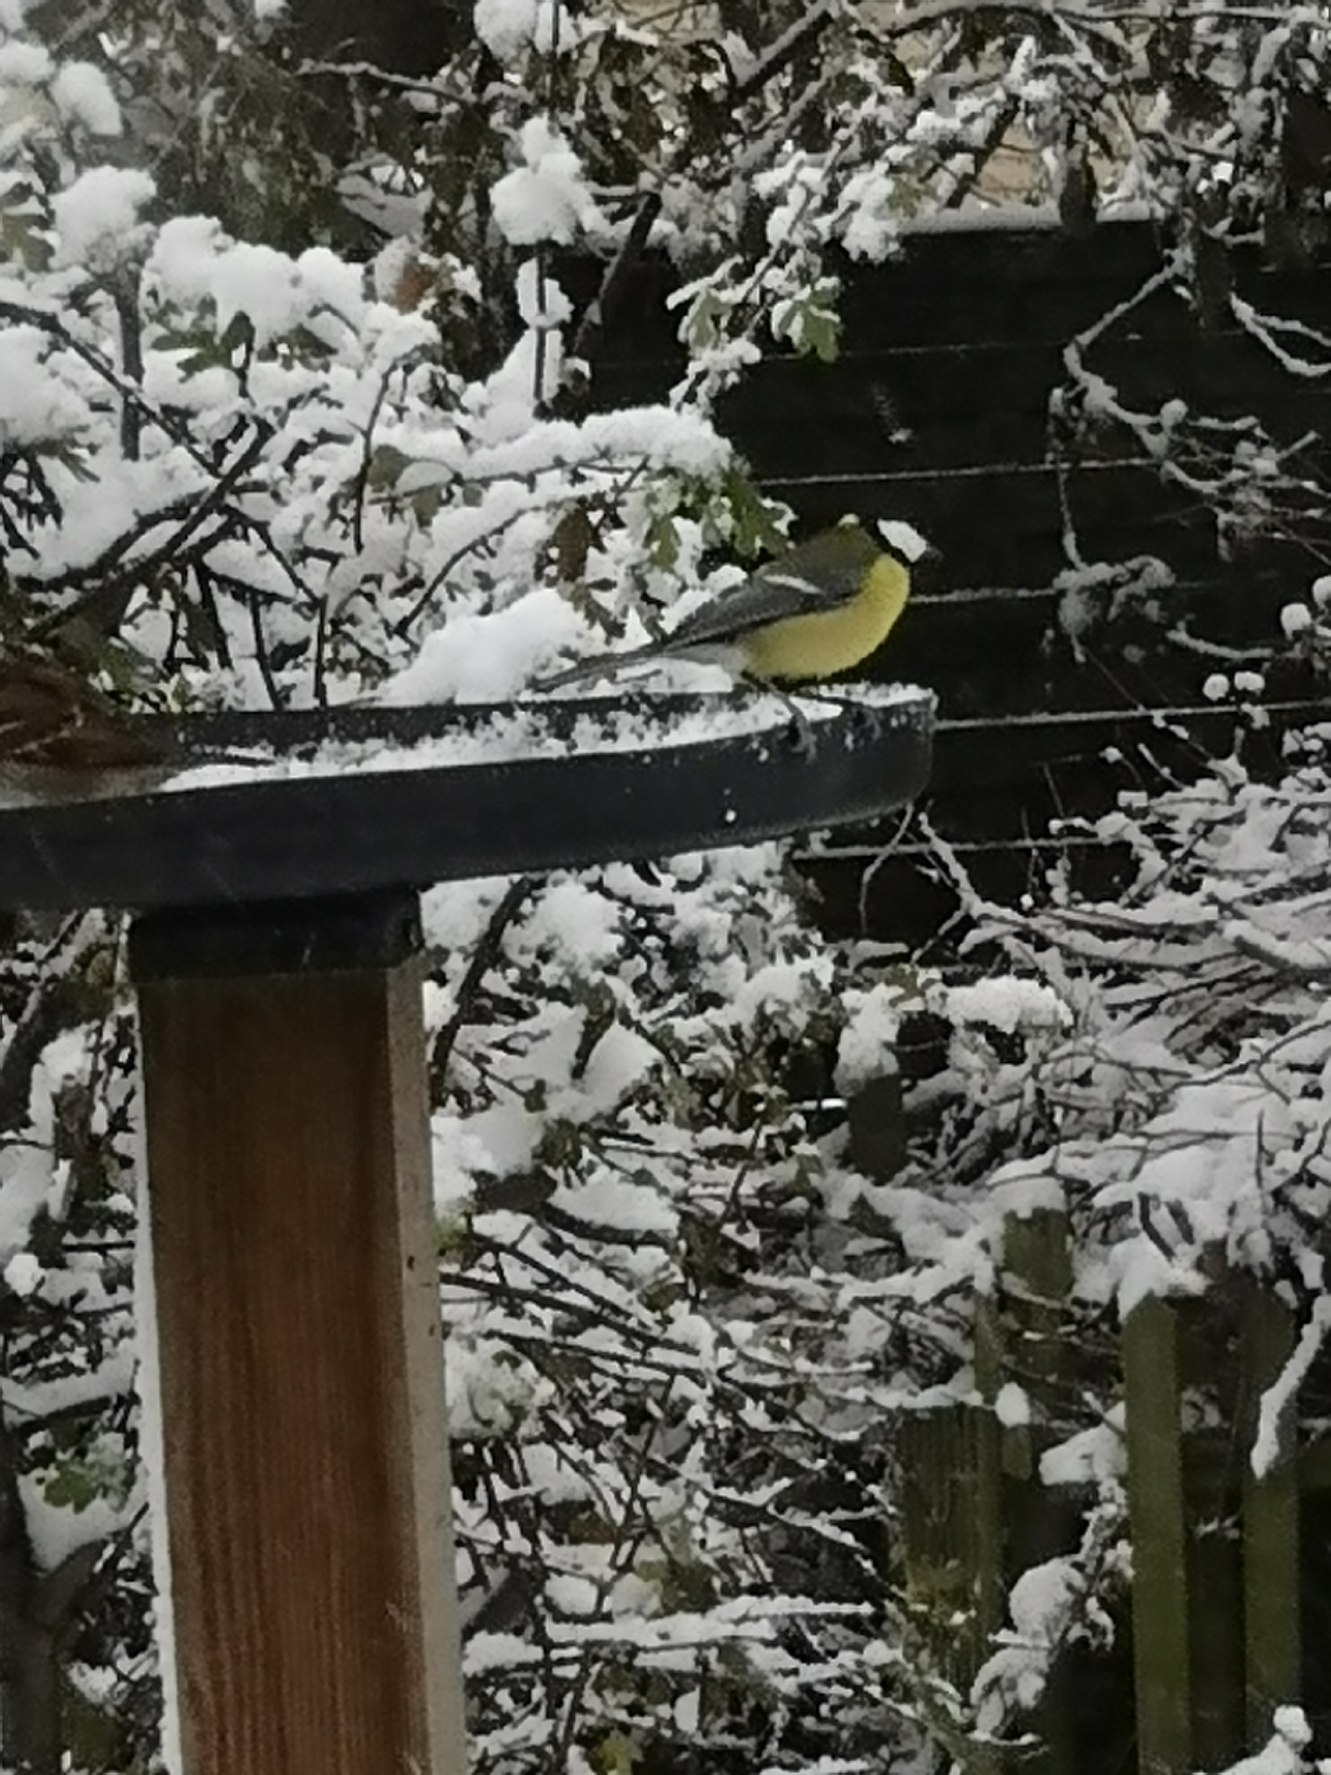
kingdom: Animalia
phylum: Chordata
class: Aves
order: Passeriformes
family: Paridae
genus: Parus
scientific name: Parus major
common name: Musvit
